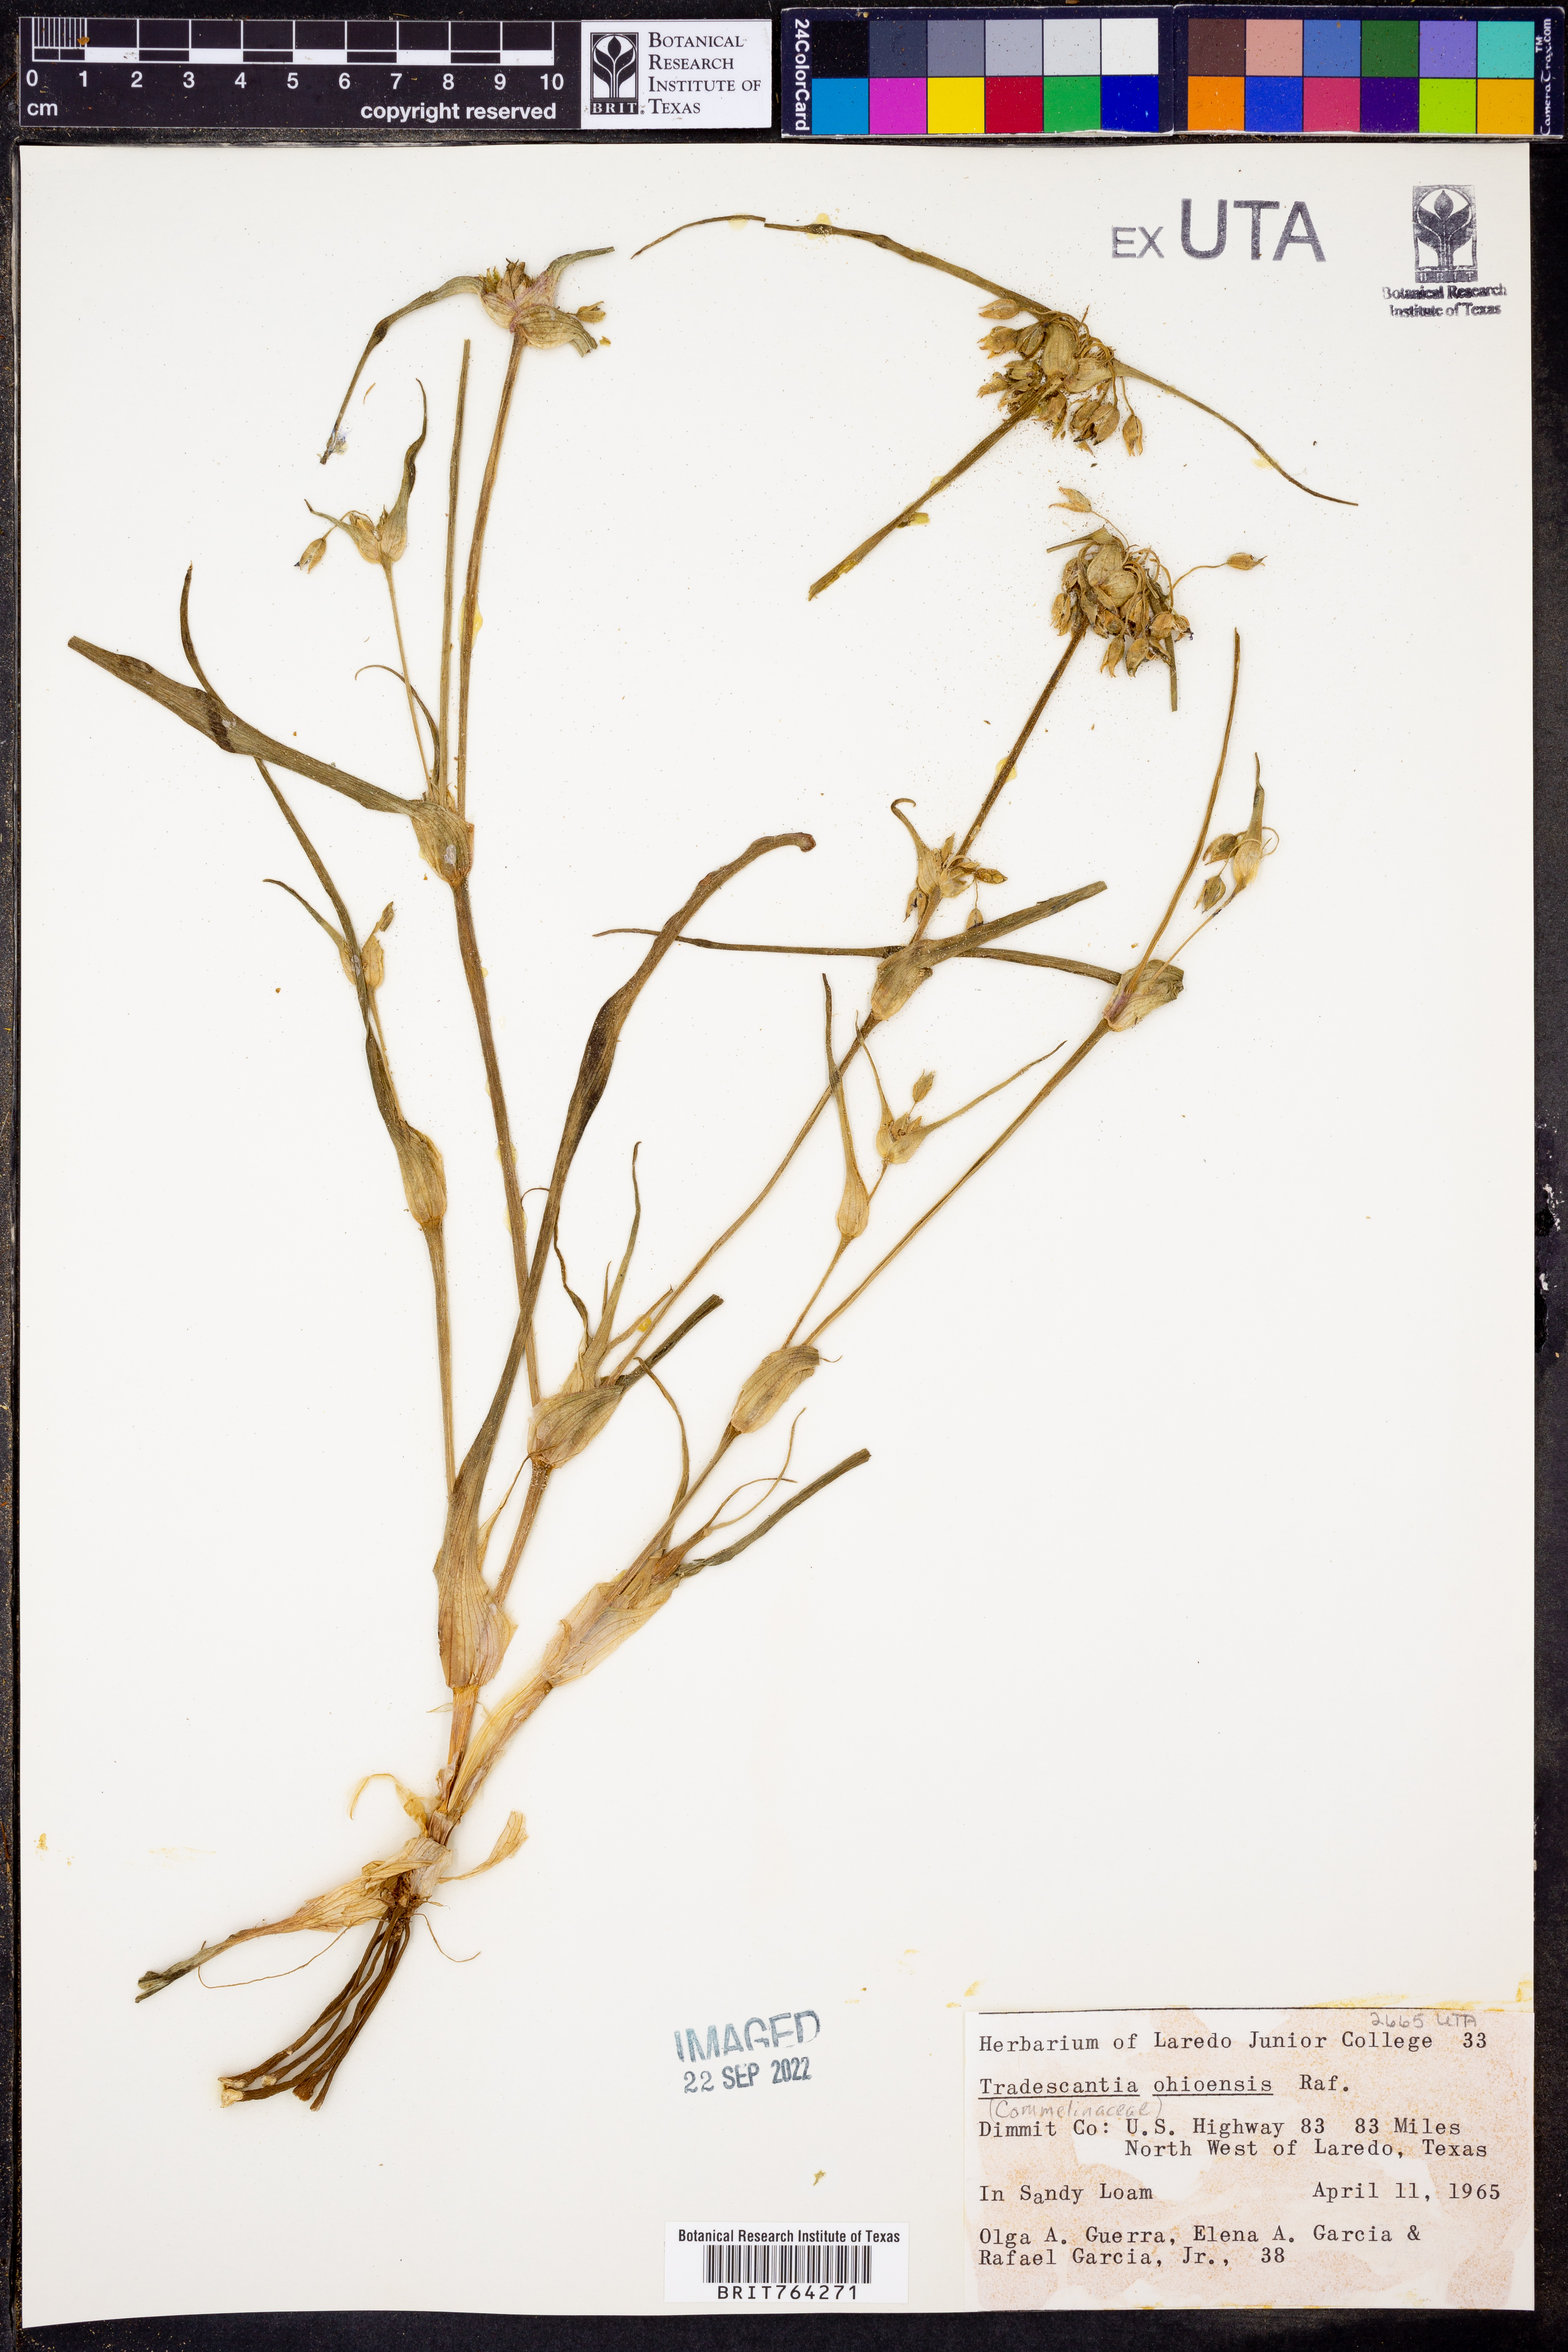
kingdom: Plantae
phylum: Tracheophyta
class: Liliopsida
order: Commelinales
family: Commelinaceae
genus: Tradescantia
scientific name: Tradescantia ohiensis
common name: Ohio spiderwort
